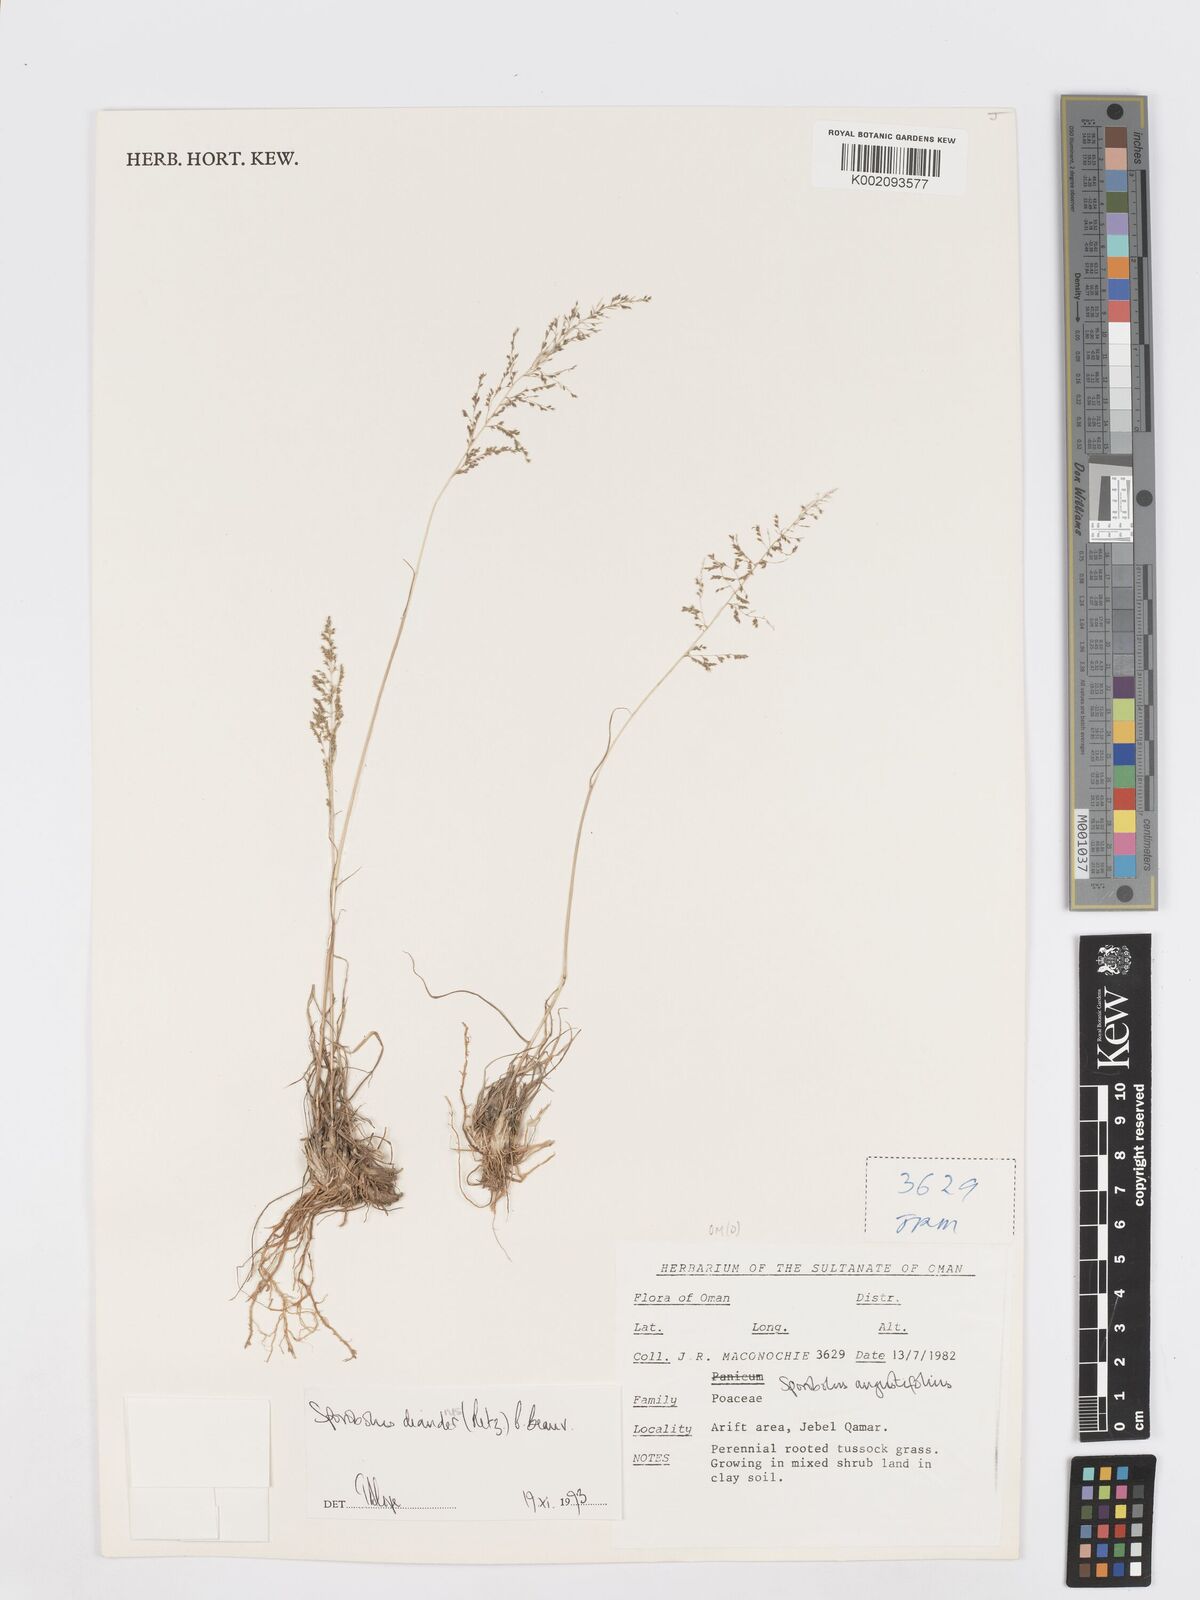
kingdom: Plantae
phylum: Tracheophyta
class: Liliopsida
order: Poales
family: Poaceae
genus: Sporobolus
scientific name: Sporobolus diandrus
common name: Tussock dropseed
